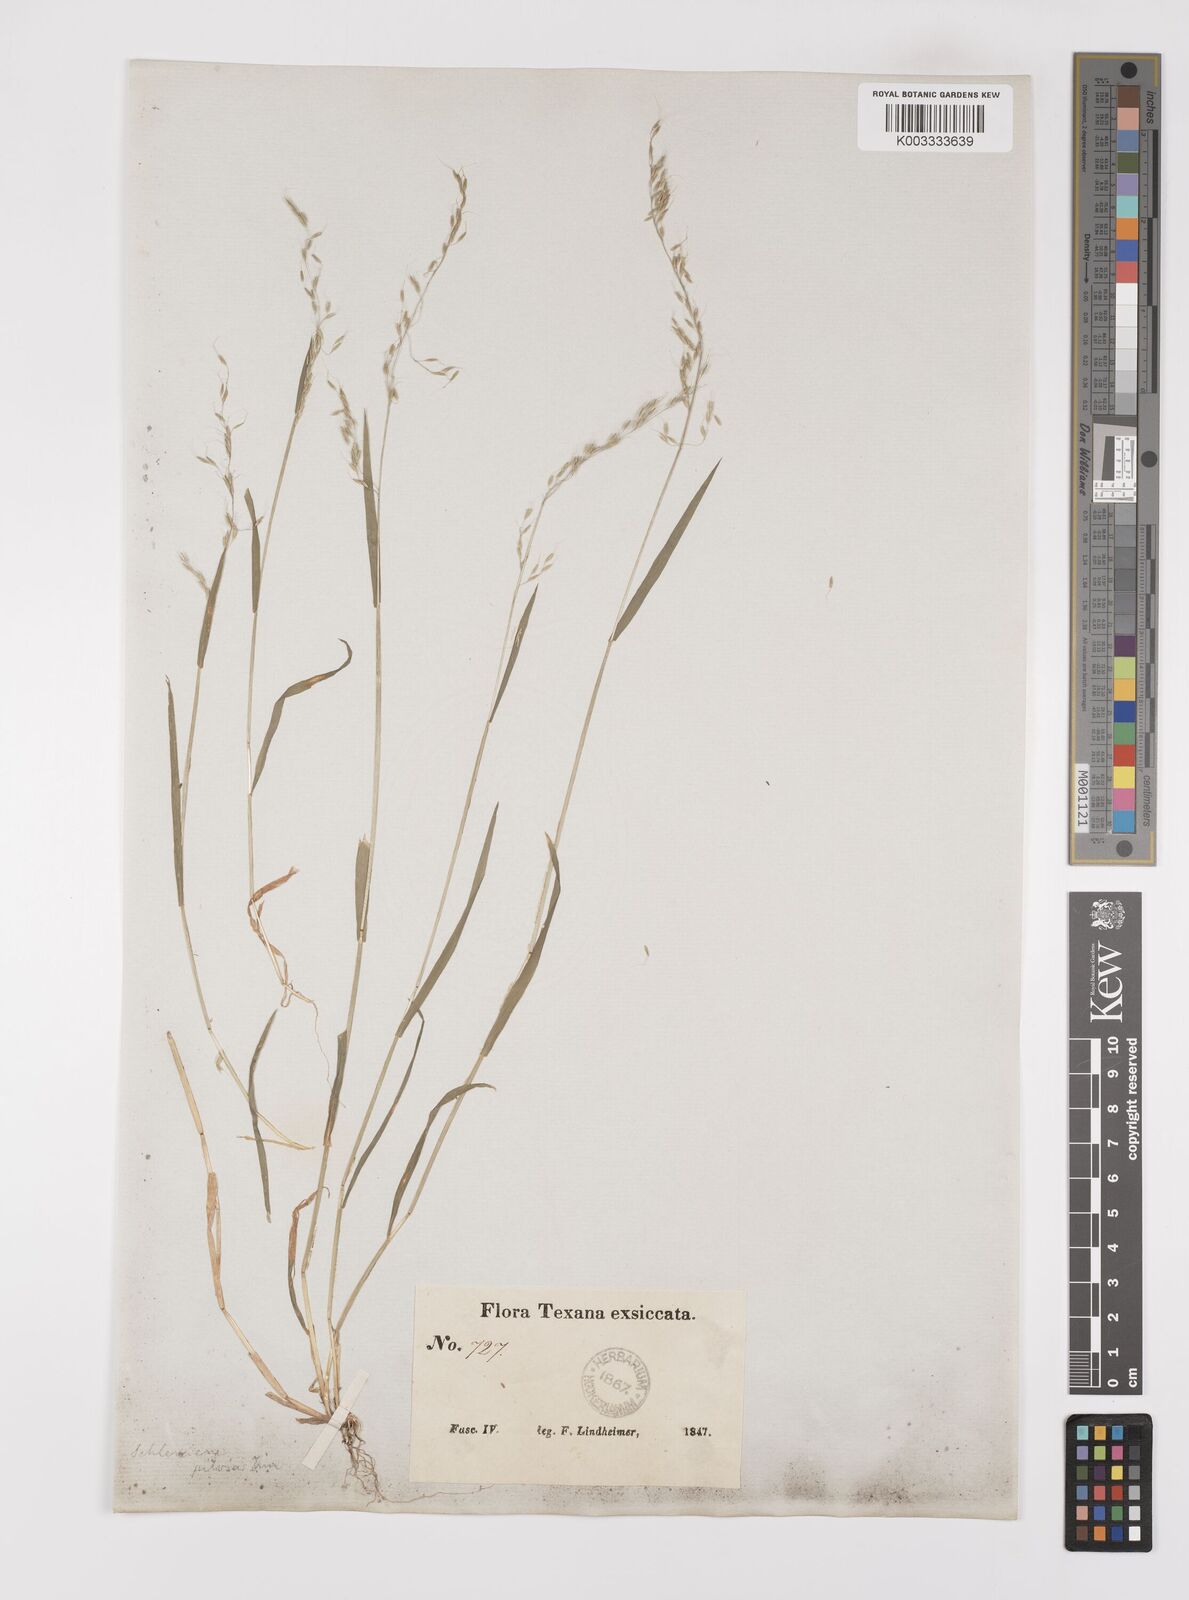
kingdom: Plantae
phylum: Tracheophyta
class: Liliopsida
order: Poales
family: Poaceae
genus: Limnodea
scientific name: Limnodea arkansana
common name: Ozark-grass
